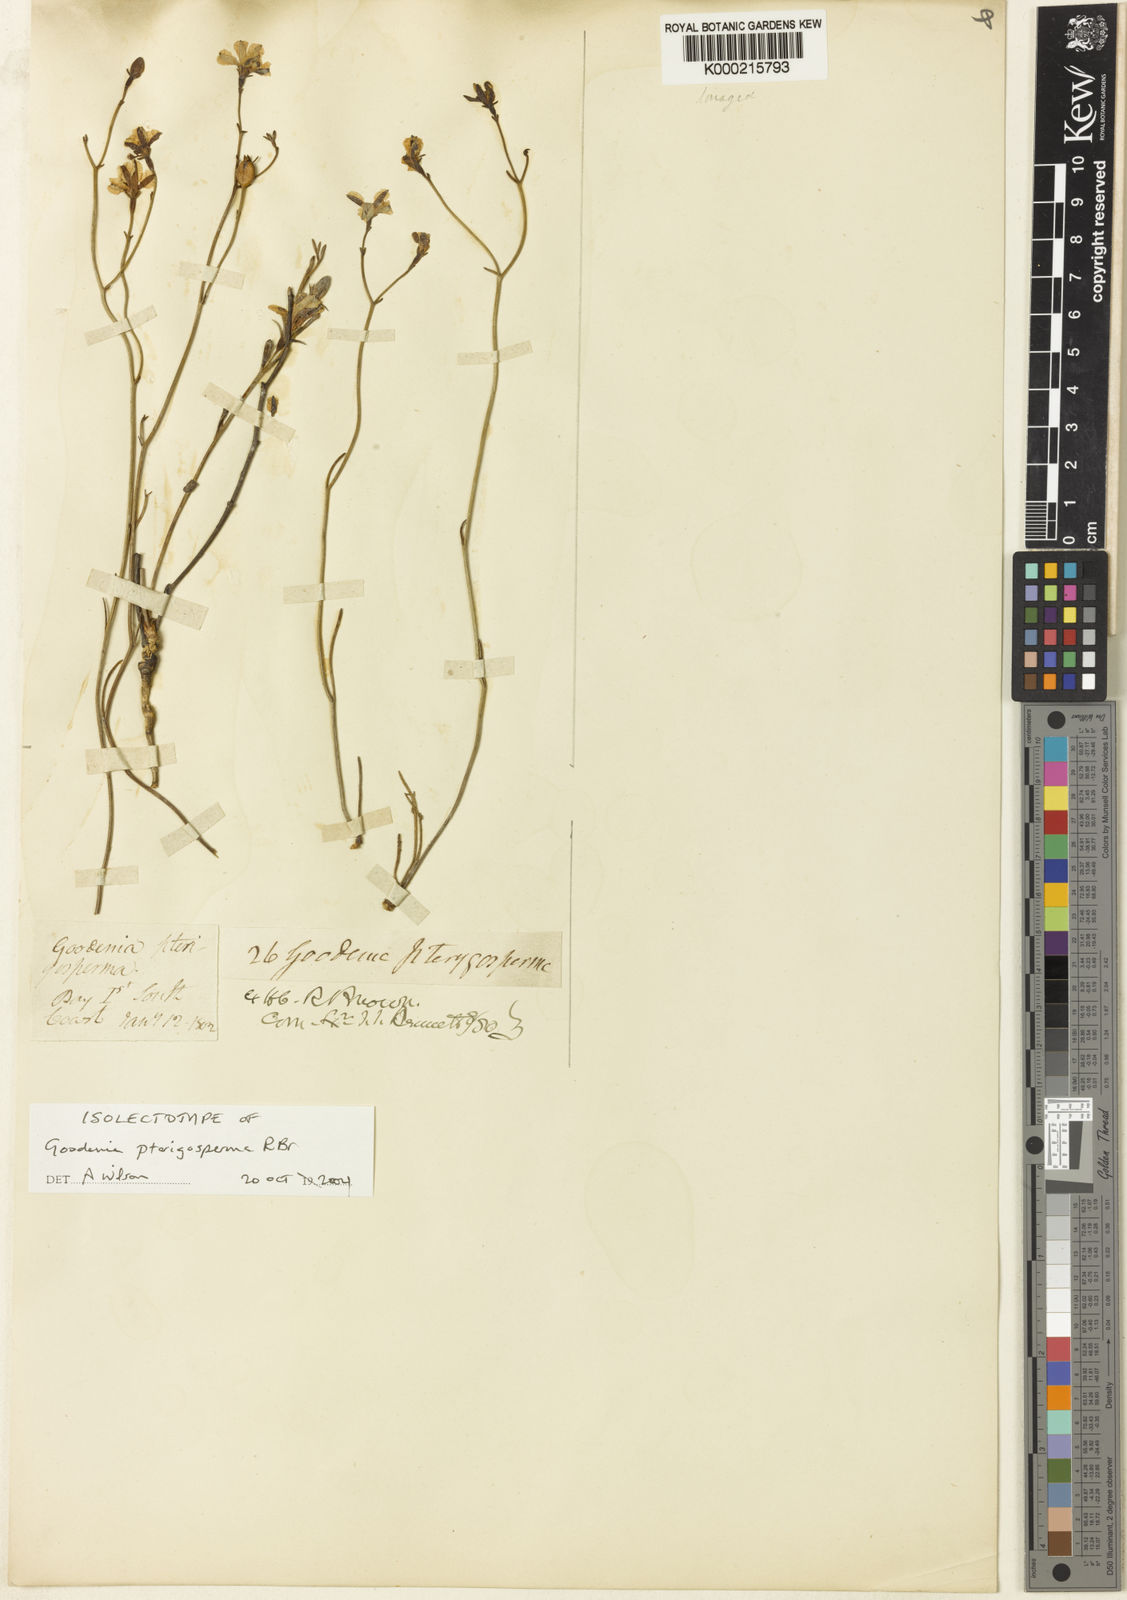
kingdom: Plantae
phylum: Tracheophyta
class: Magnoliopsida
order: Asterales
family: Goodeniaceae
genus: Goodenia
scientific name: Goodenia pterygosperma
